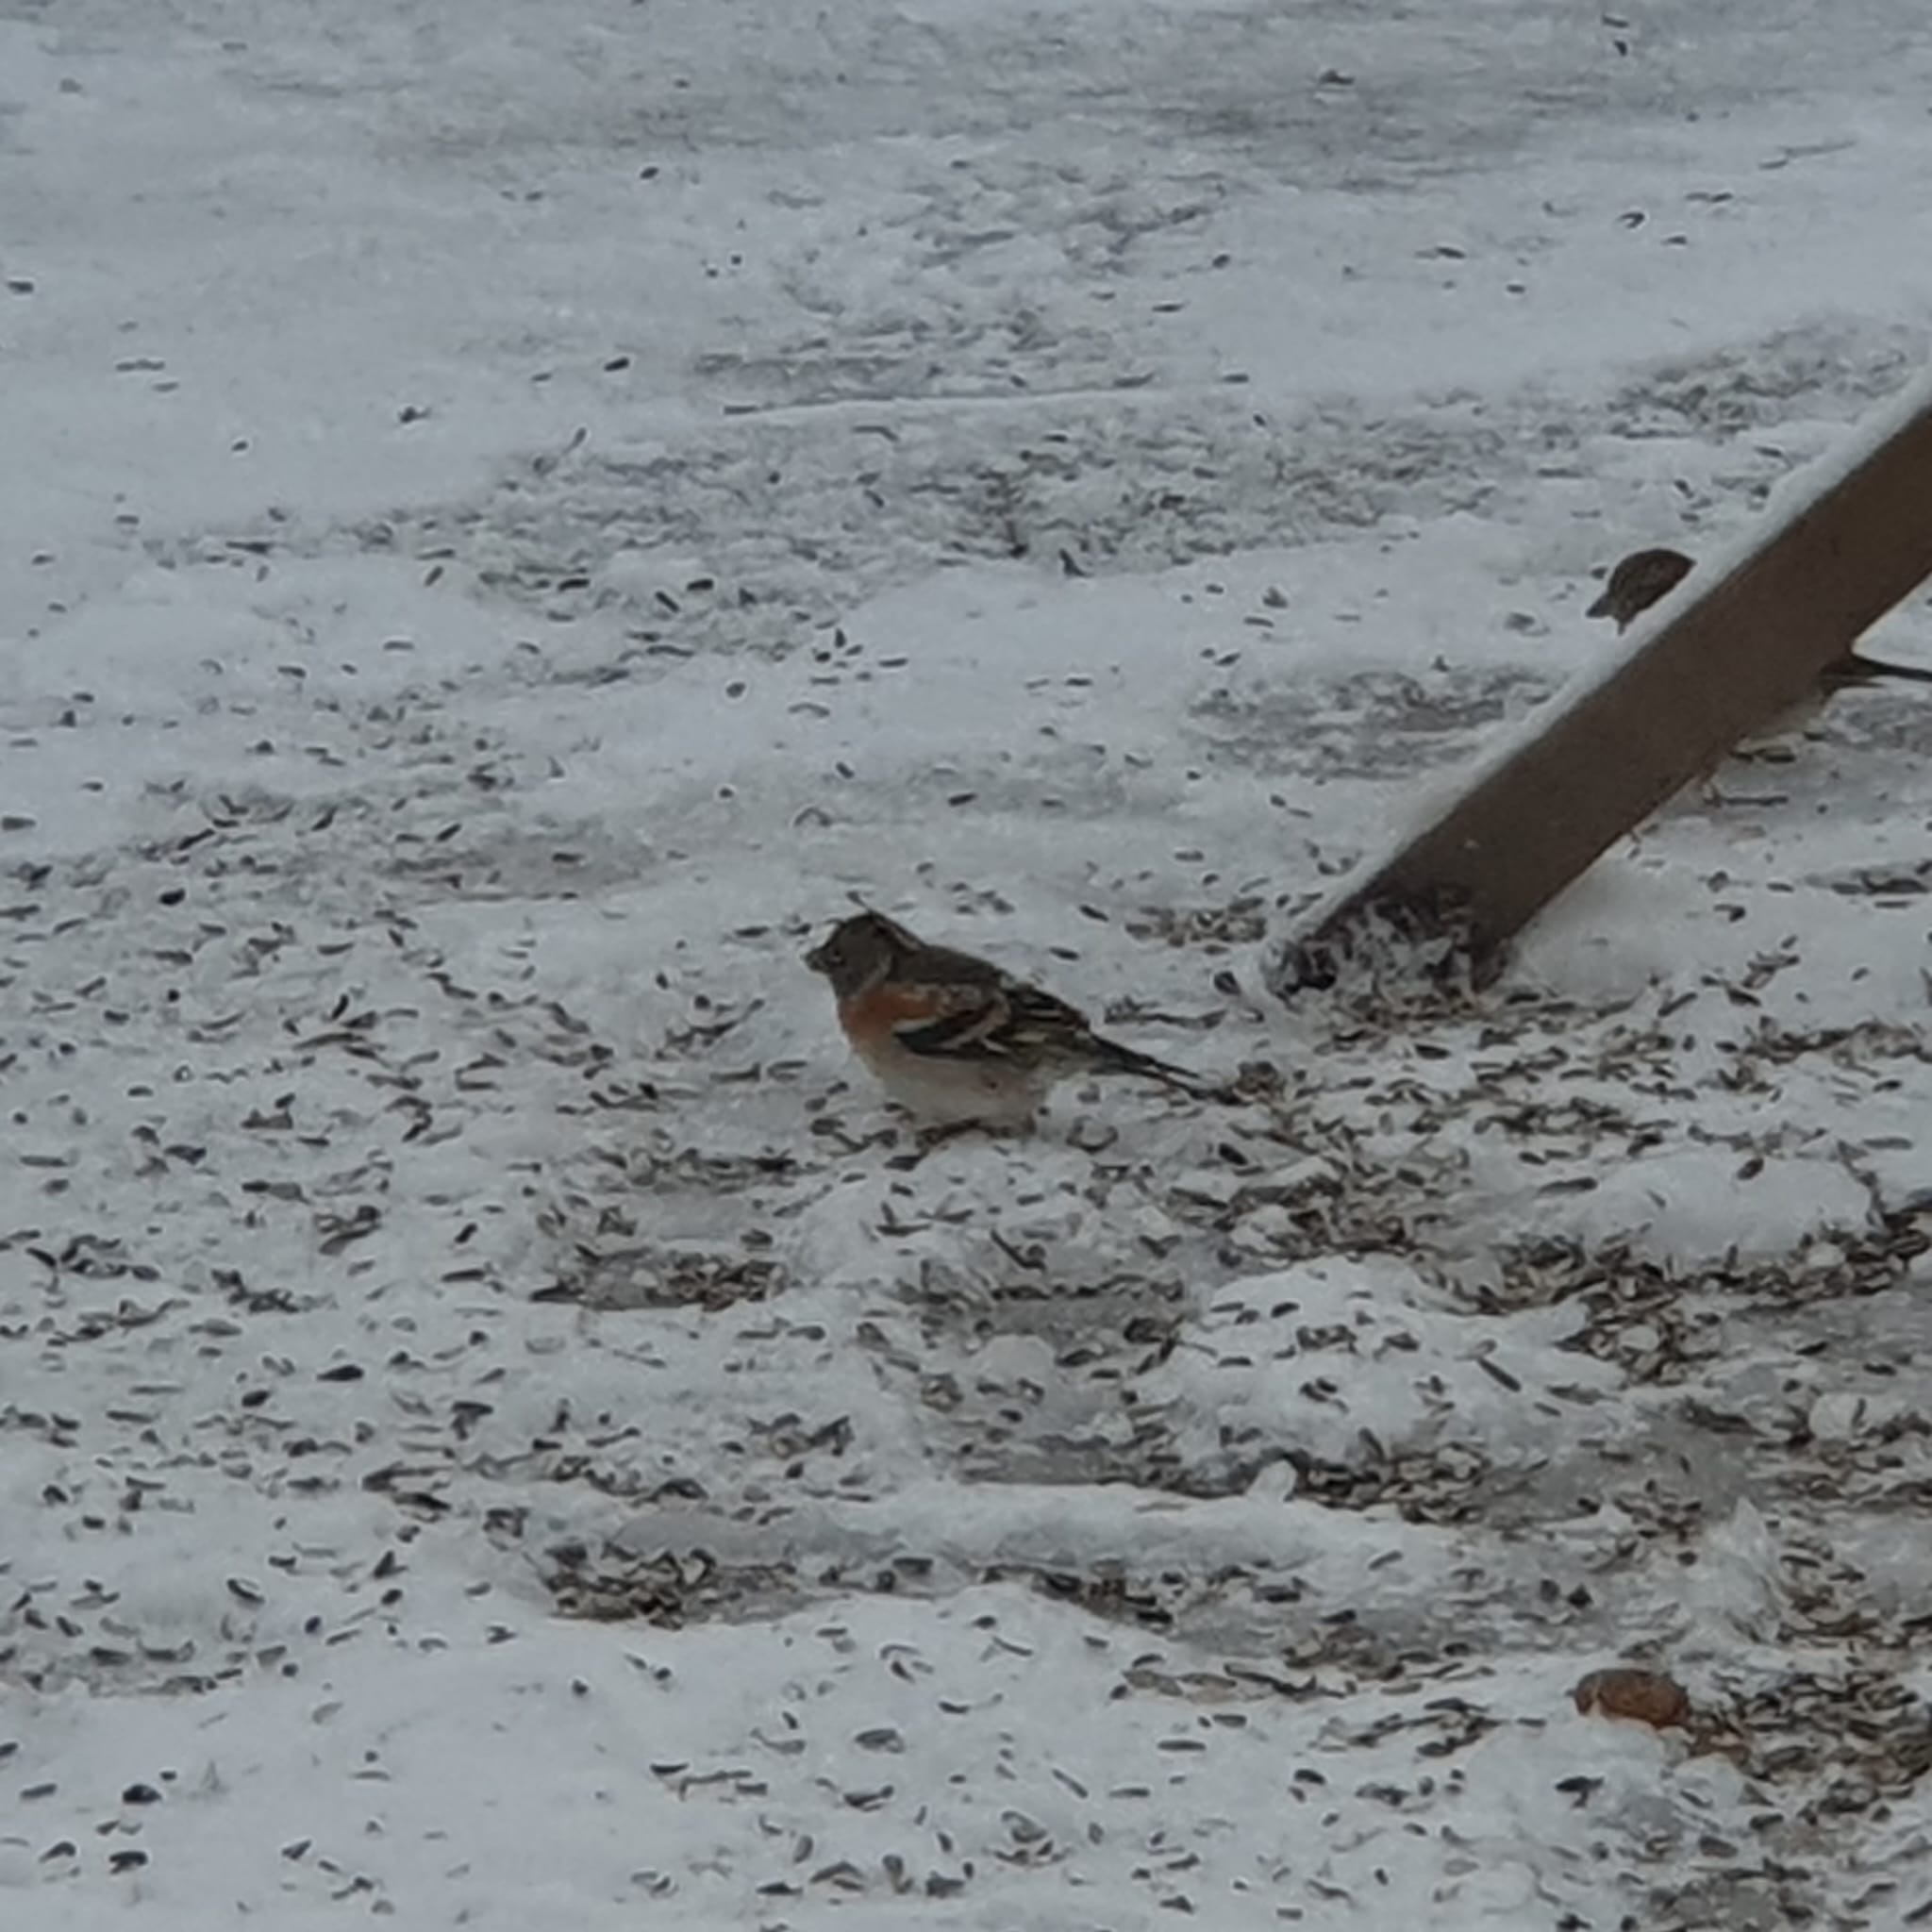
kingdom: Animalia
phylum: Chordata
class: Aves
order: Passeriformes
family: Fringillidae
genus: Fringilla
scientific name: Fringilla montifringilla
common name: Kvækerfinke
